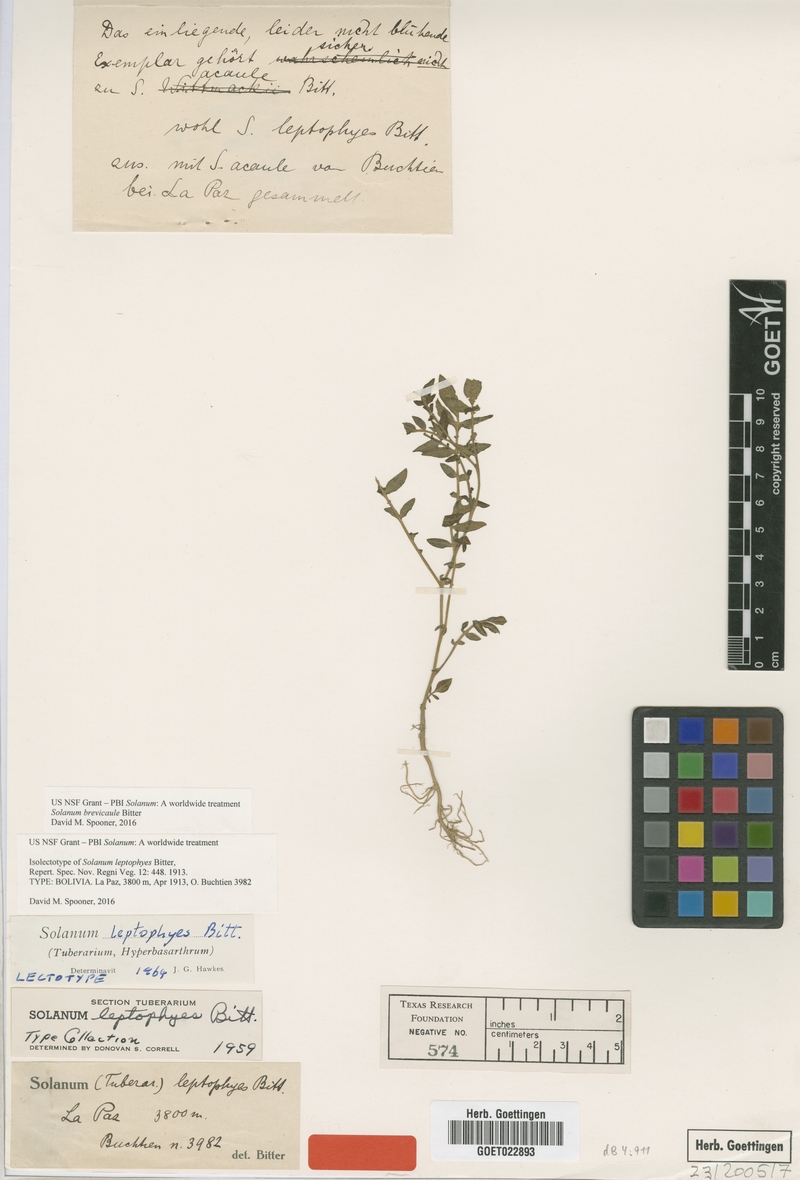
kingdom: Plantae
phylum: Tracheophyta
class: Magnoliopsida
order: Solanales
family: Solanaceae
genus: Solanum
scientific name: Solanum brevicaule
